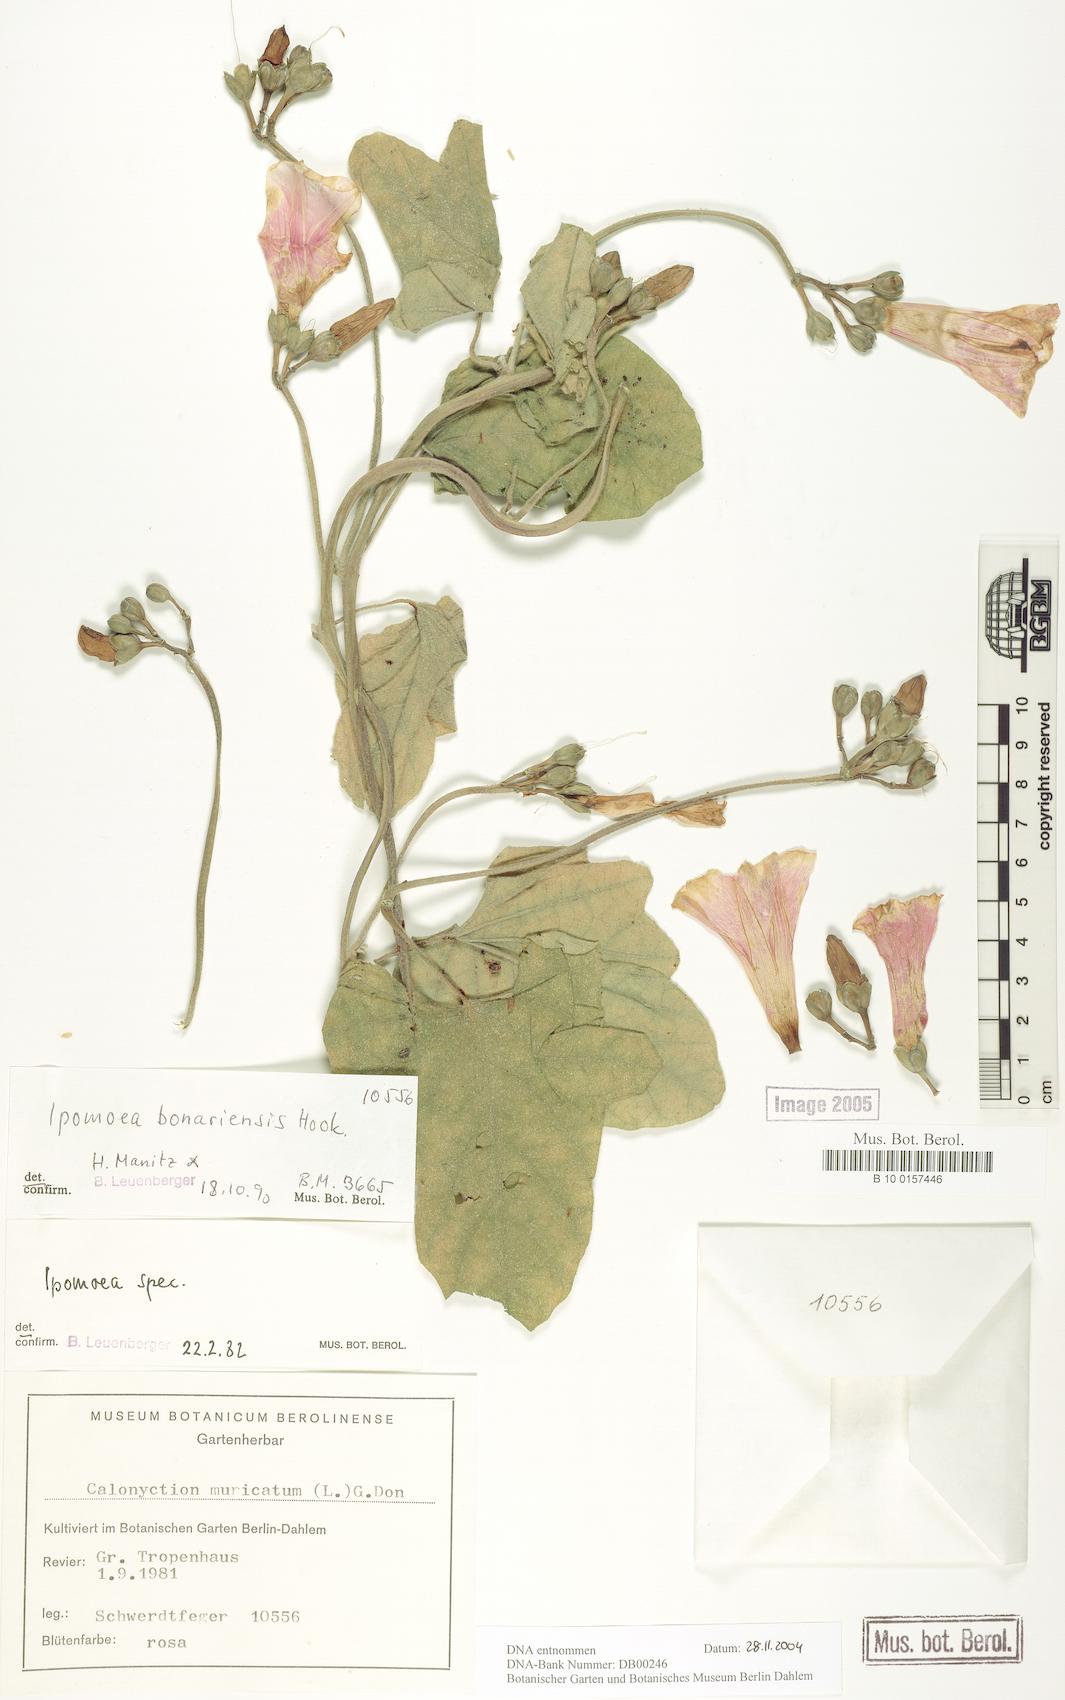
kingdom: Plantae
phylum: Tracheophyta
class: Magnoliopsida
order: Solanales
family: Convolvulaceae
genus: Ipomoea
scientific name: Ipomoea bonariensis
